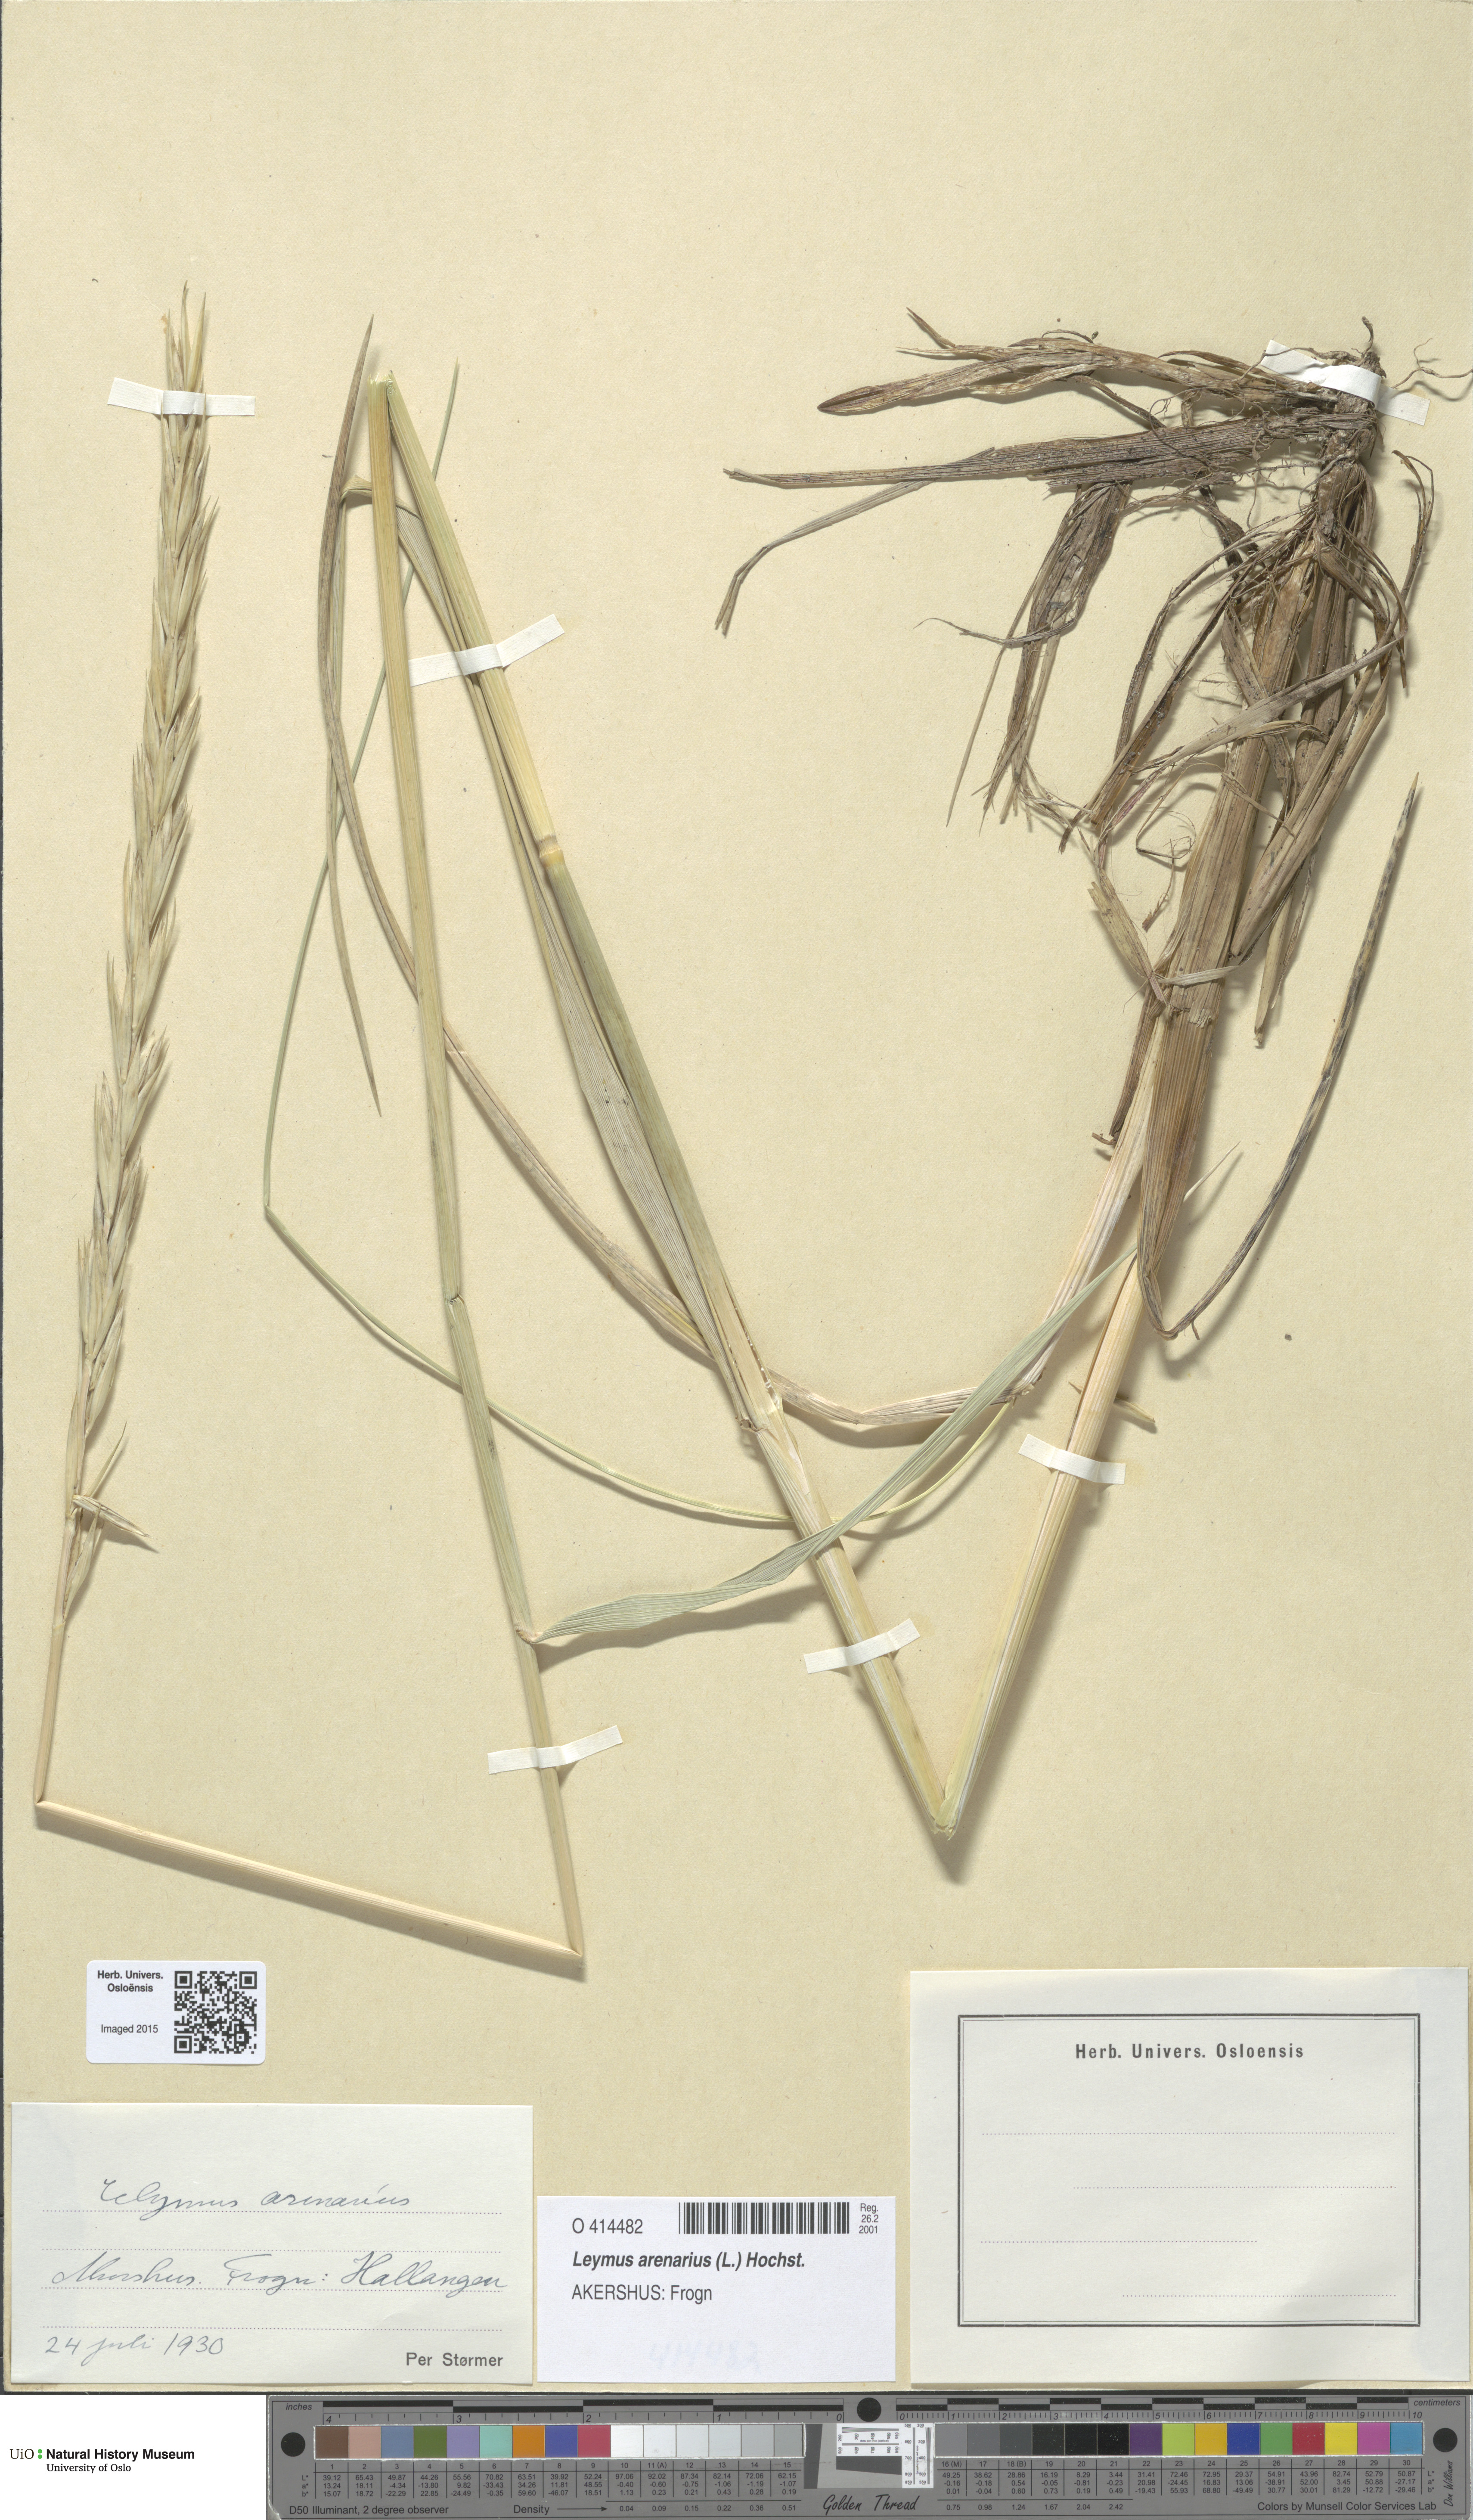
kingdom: Plantae
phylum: Tracheophyta
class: Liliopsida
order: Poales
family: Poaceae
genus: Leymus
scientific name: Leymus arenarius
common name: Lyme-grass
